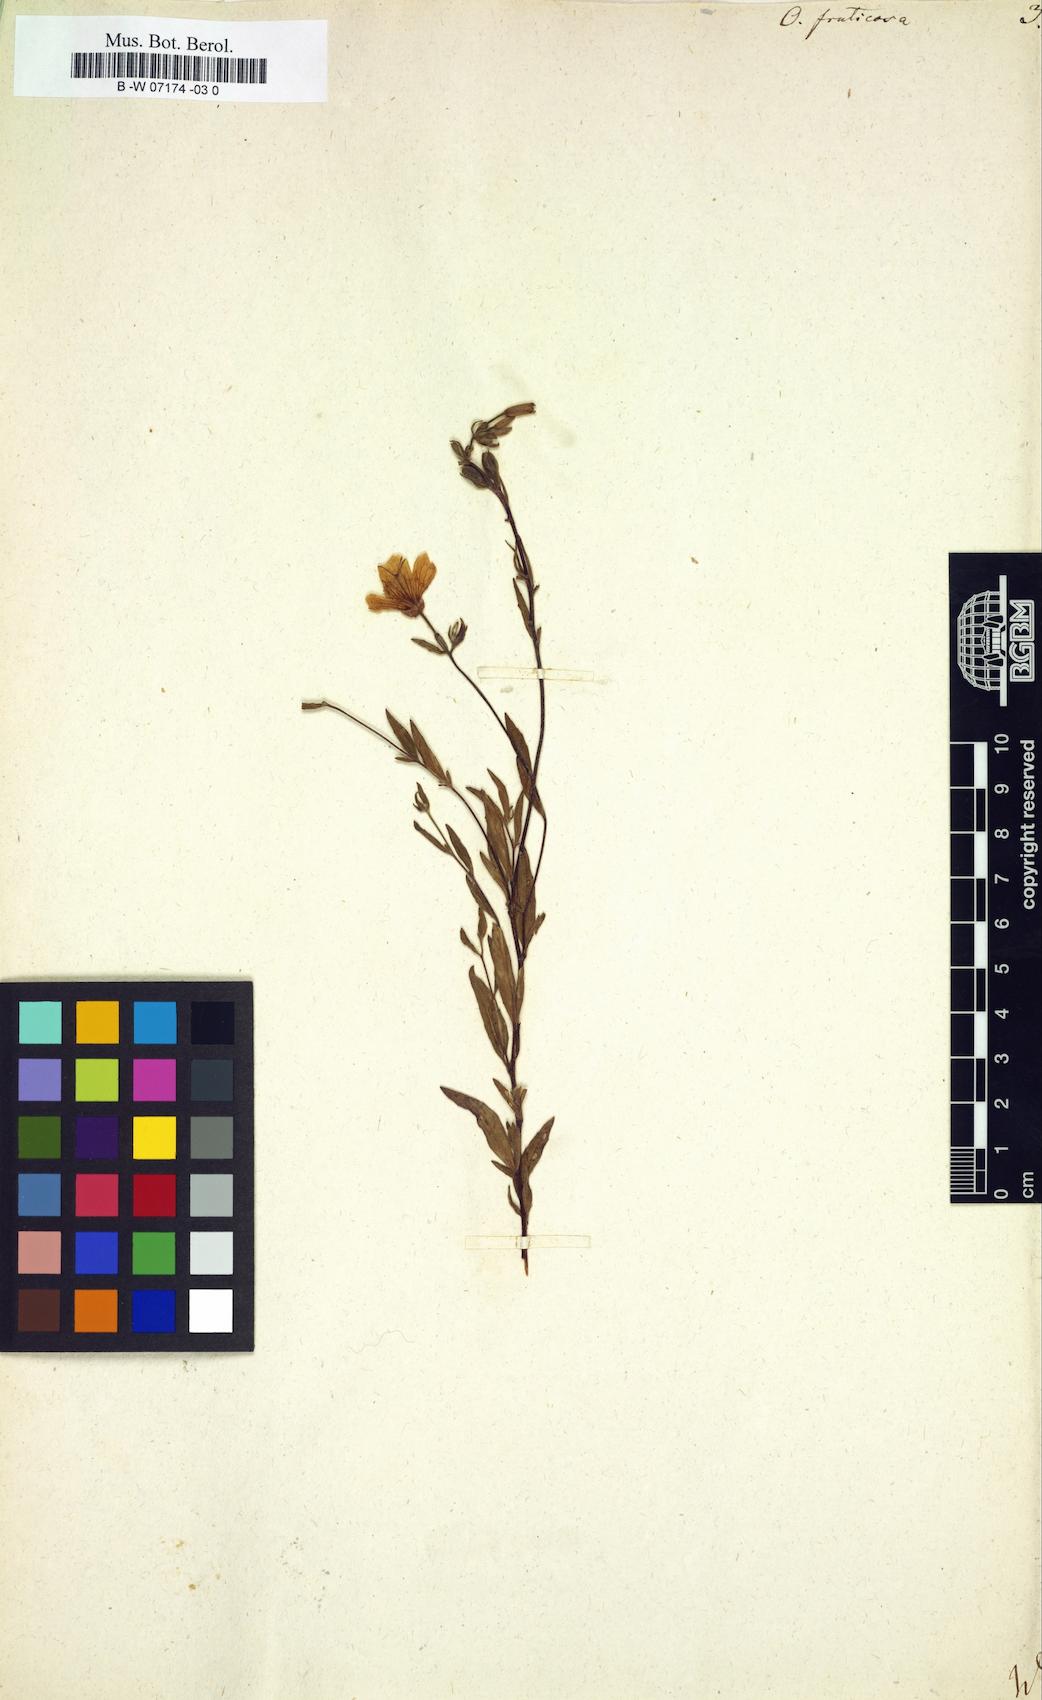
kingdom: Plantae
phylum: Tracheophyta
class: Magnoliopsida
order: Myrtales
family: Onagraceae
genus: Oenothera
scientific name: Oenothera fruticosa
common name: Southern sundrops
